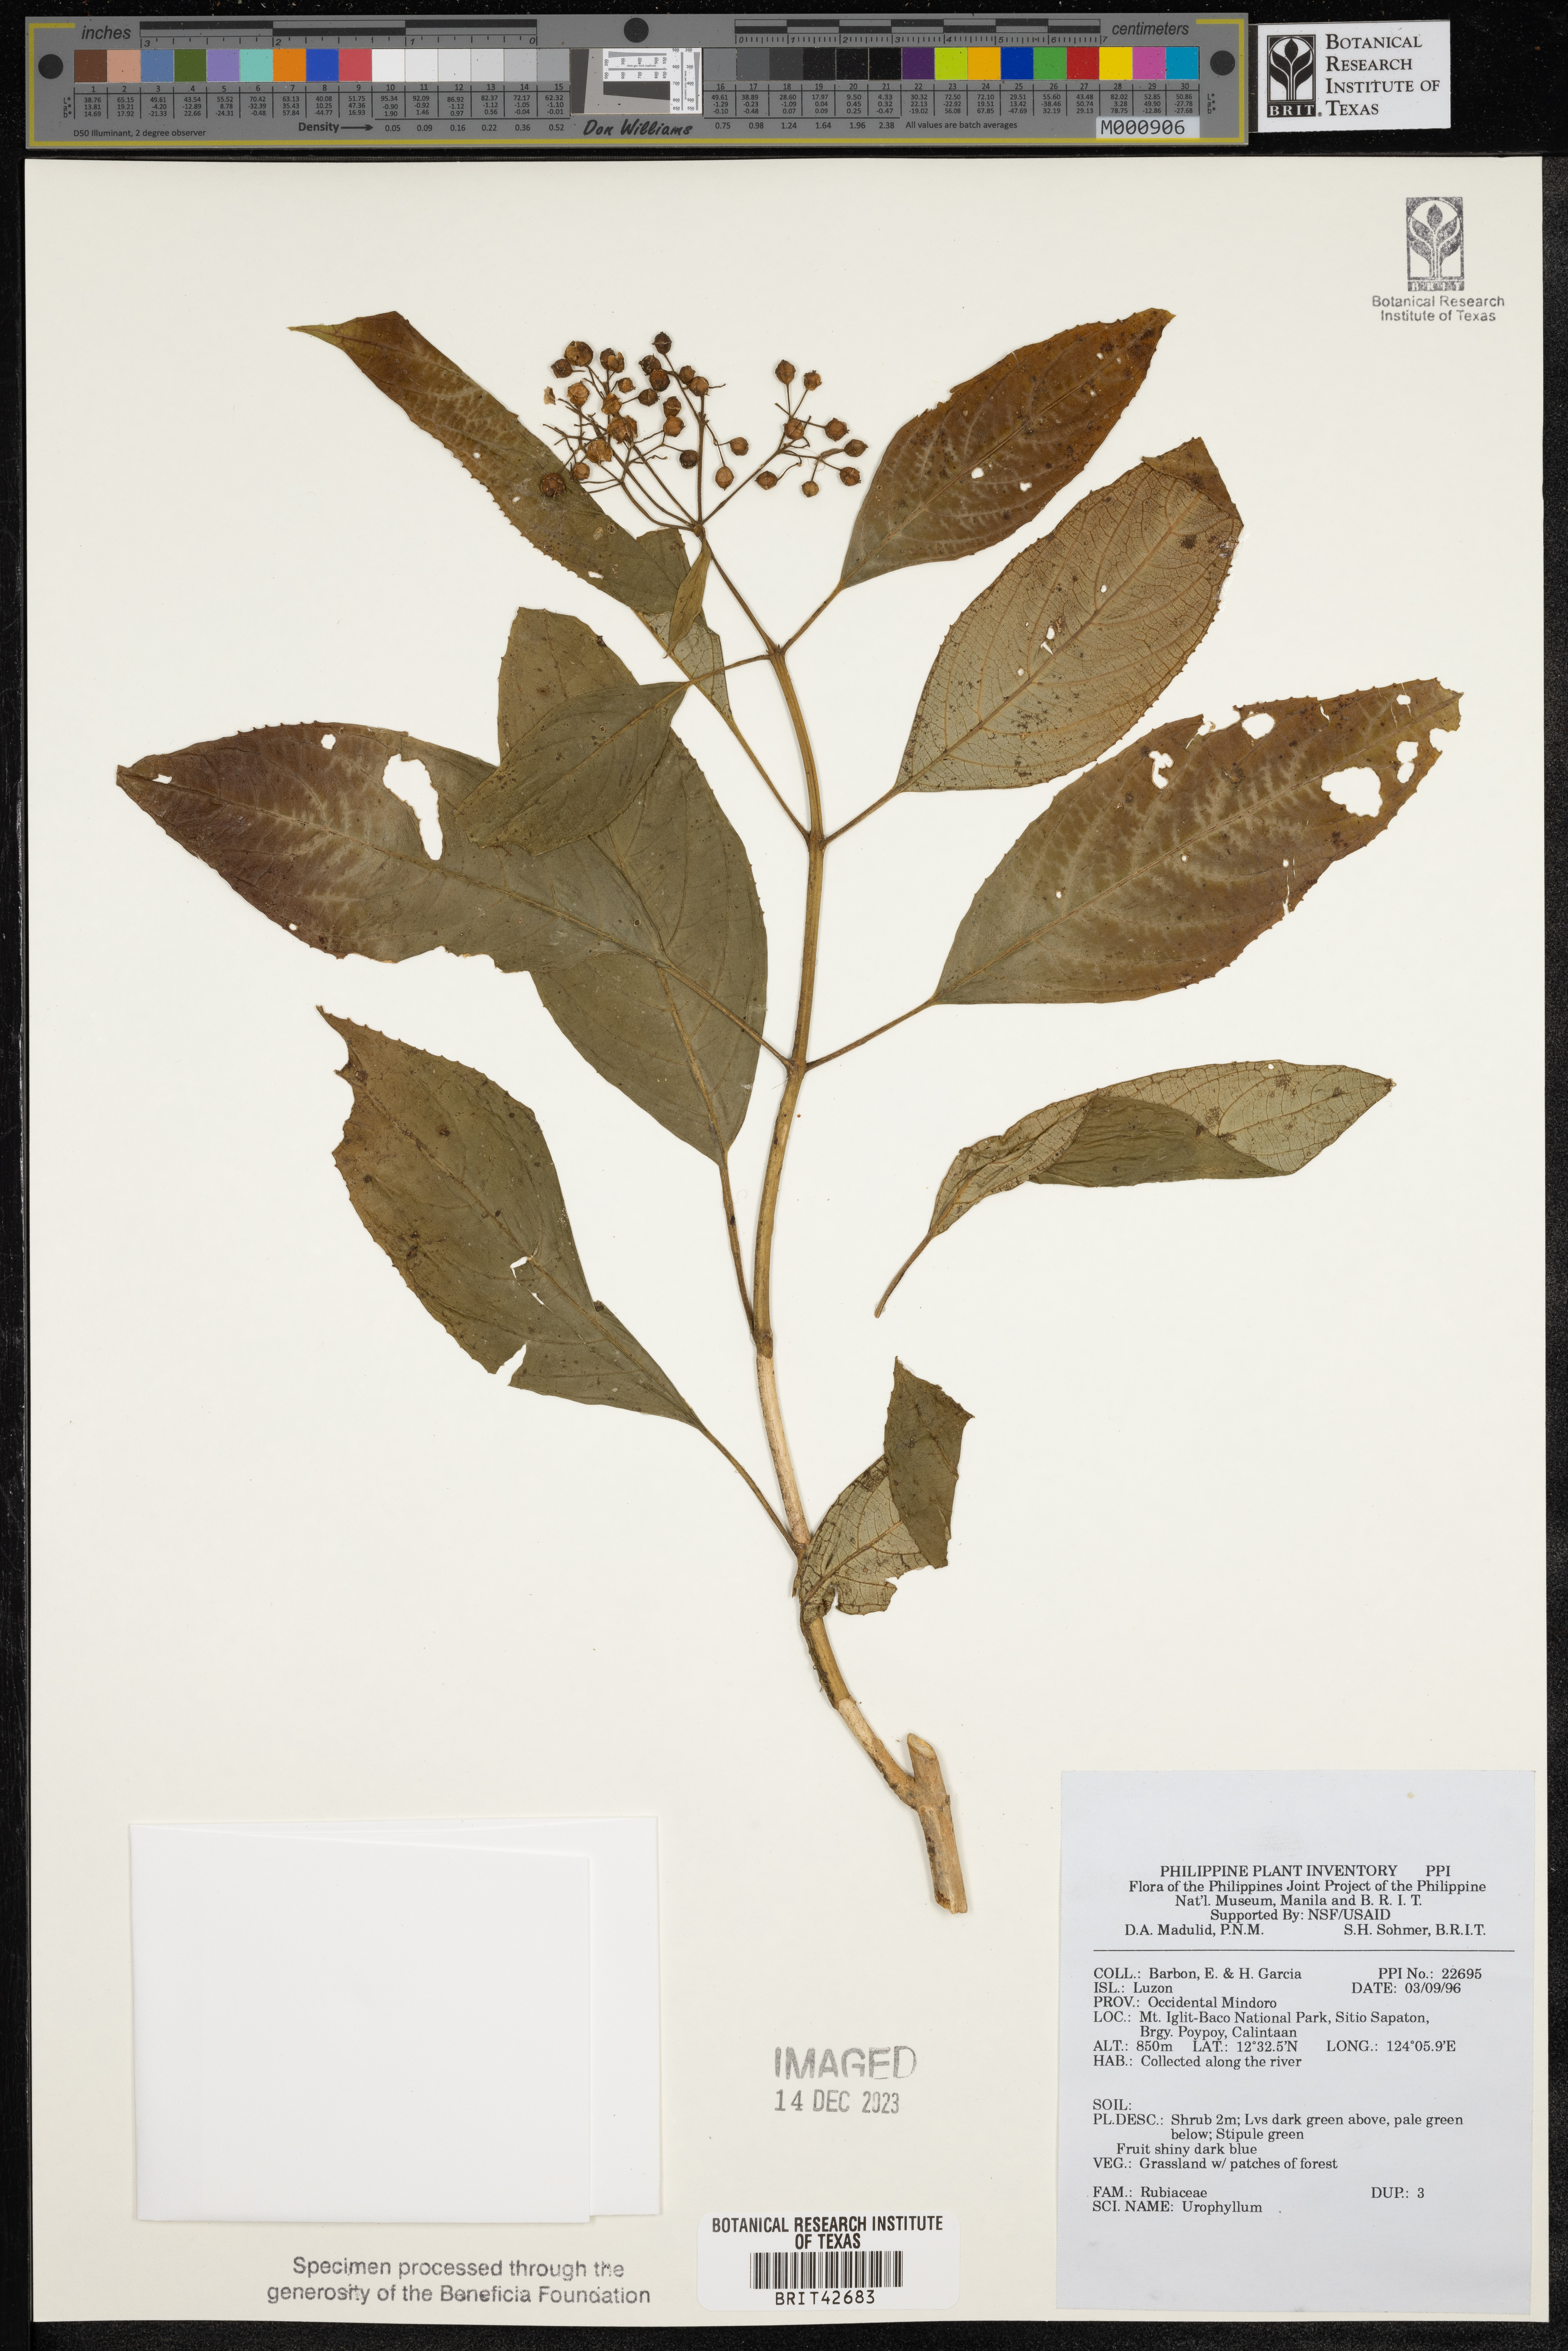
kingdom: Plantae
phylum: Tracheophyta
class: Magnoliopsida
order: Gentianales
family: Rubiaceae
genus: Urophyllum
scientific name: Urophyllum
